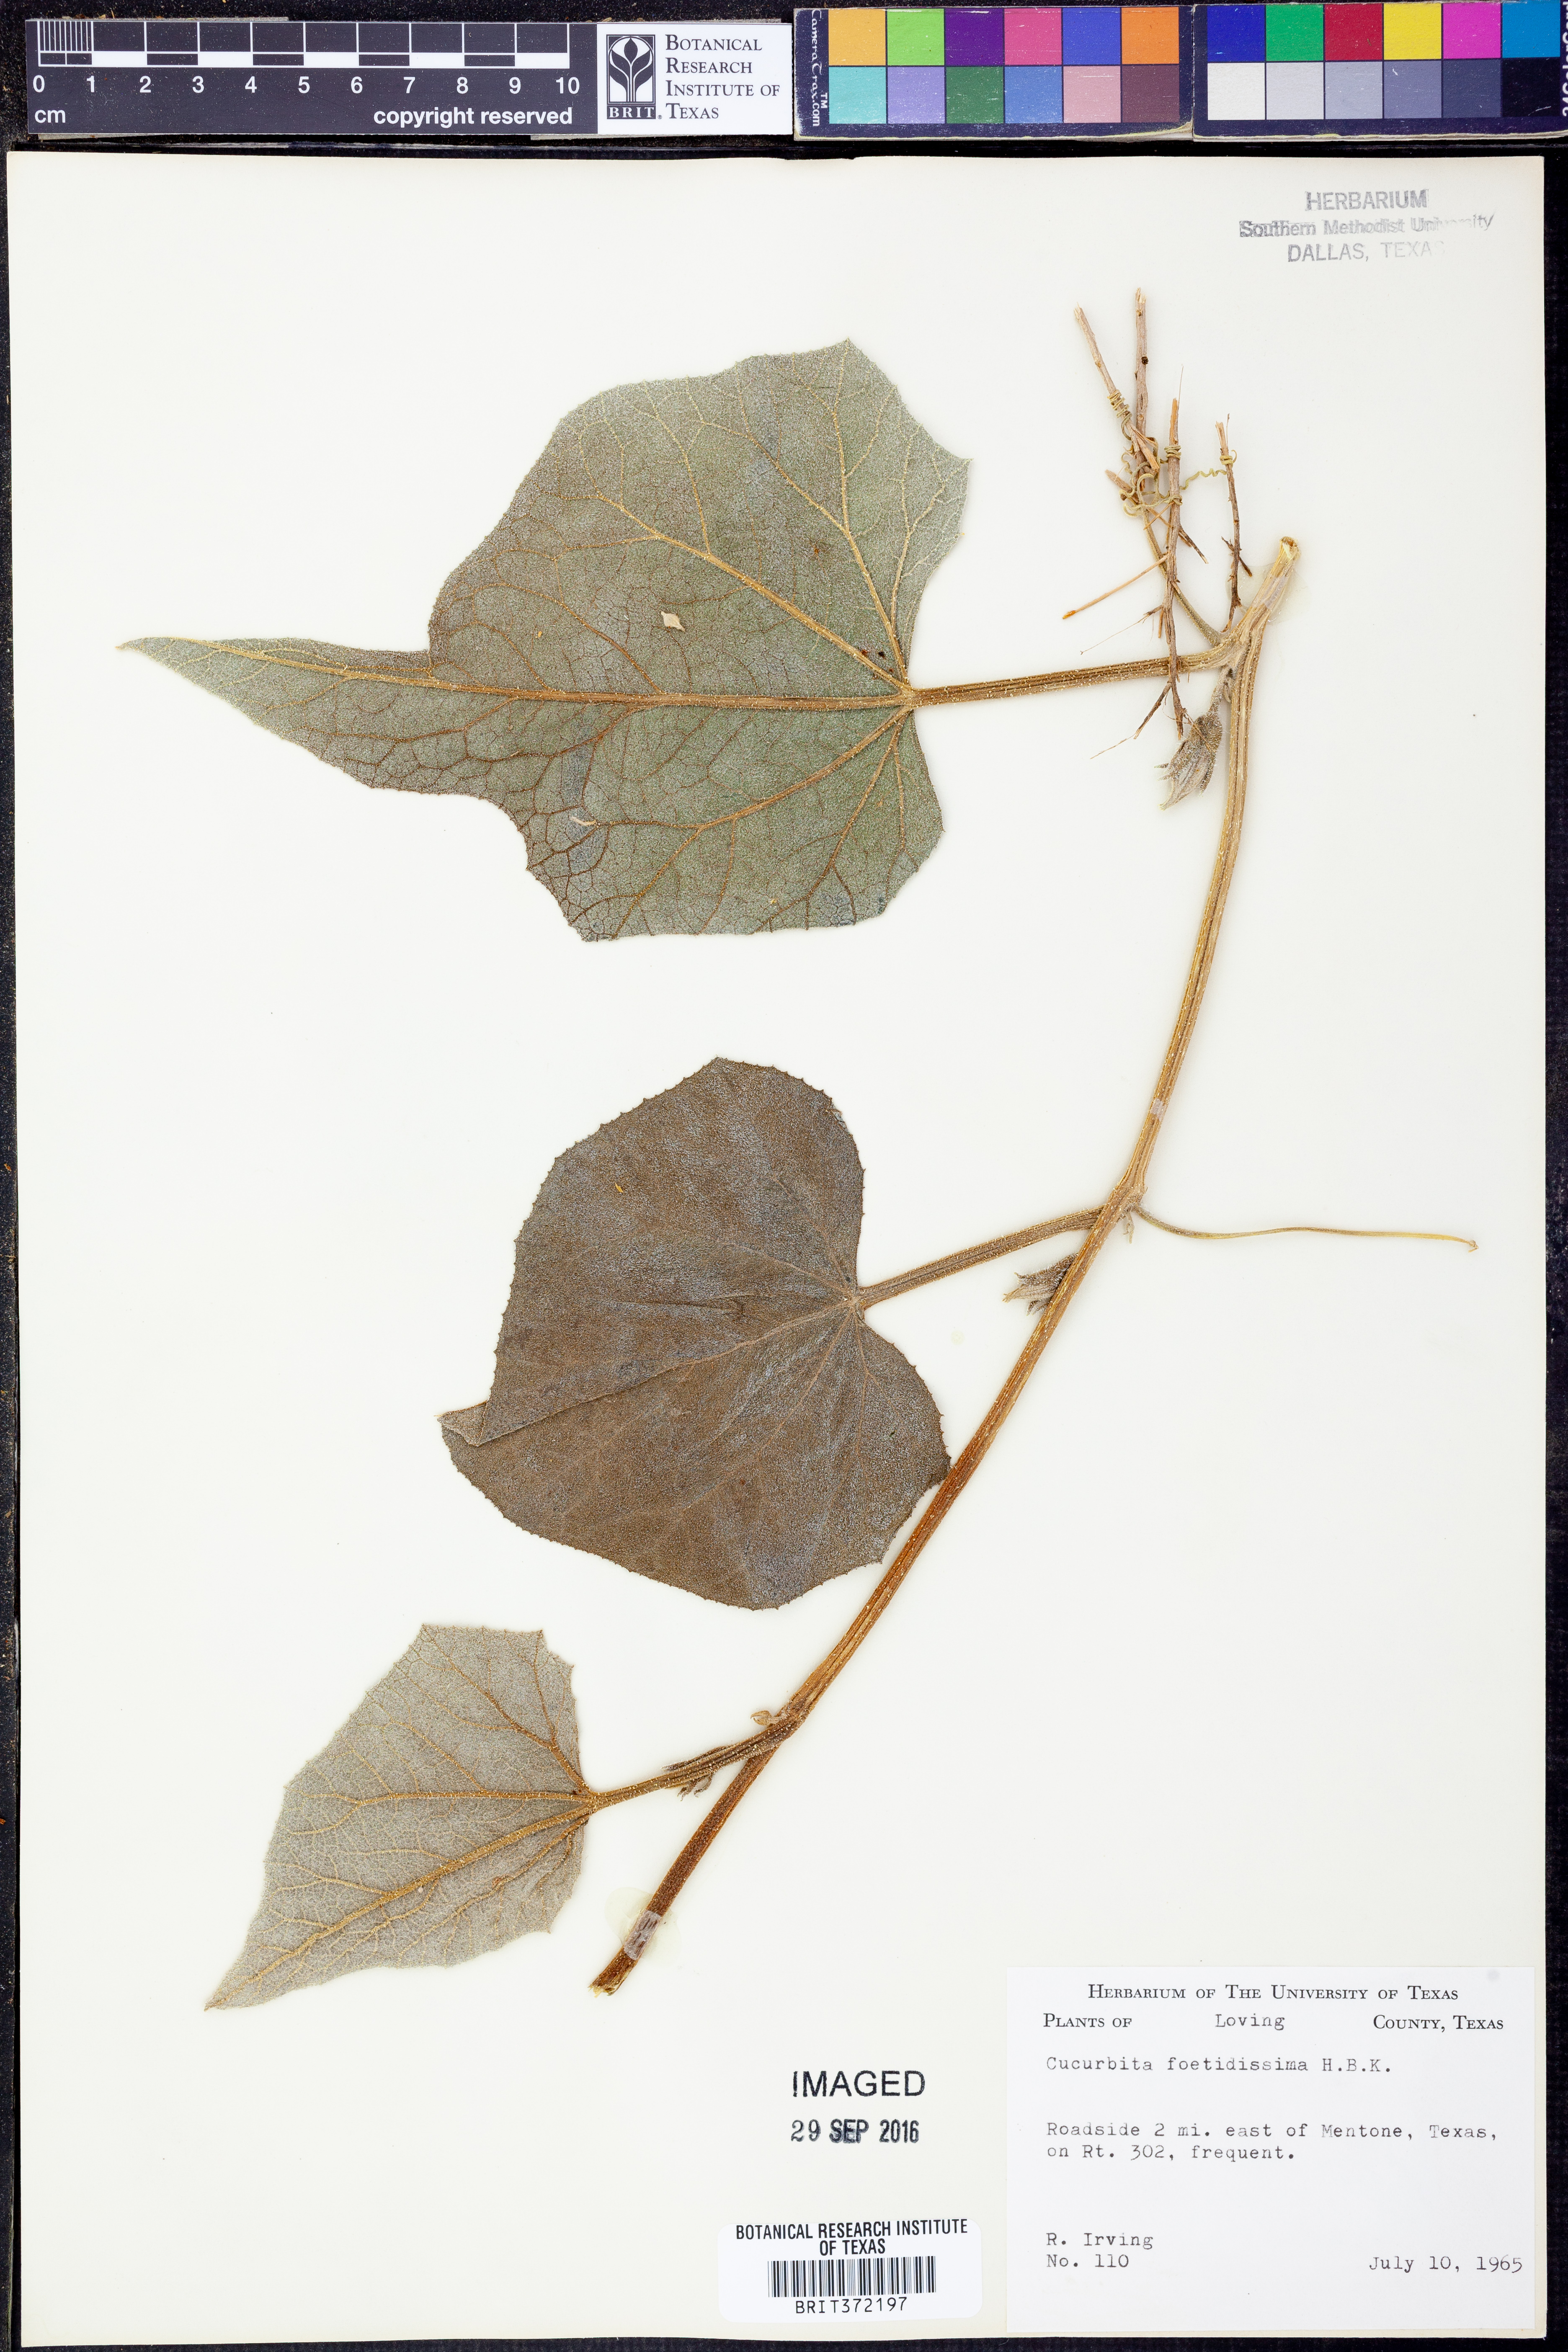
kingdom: Plantae
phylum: Tracheophyta
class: Magnoliopsida
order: Cucurbitales
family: Cucurbitaceae
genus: Cucurbita
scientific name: Cucurbita foetidissima
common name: Buffalo gourd
